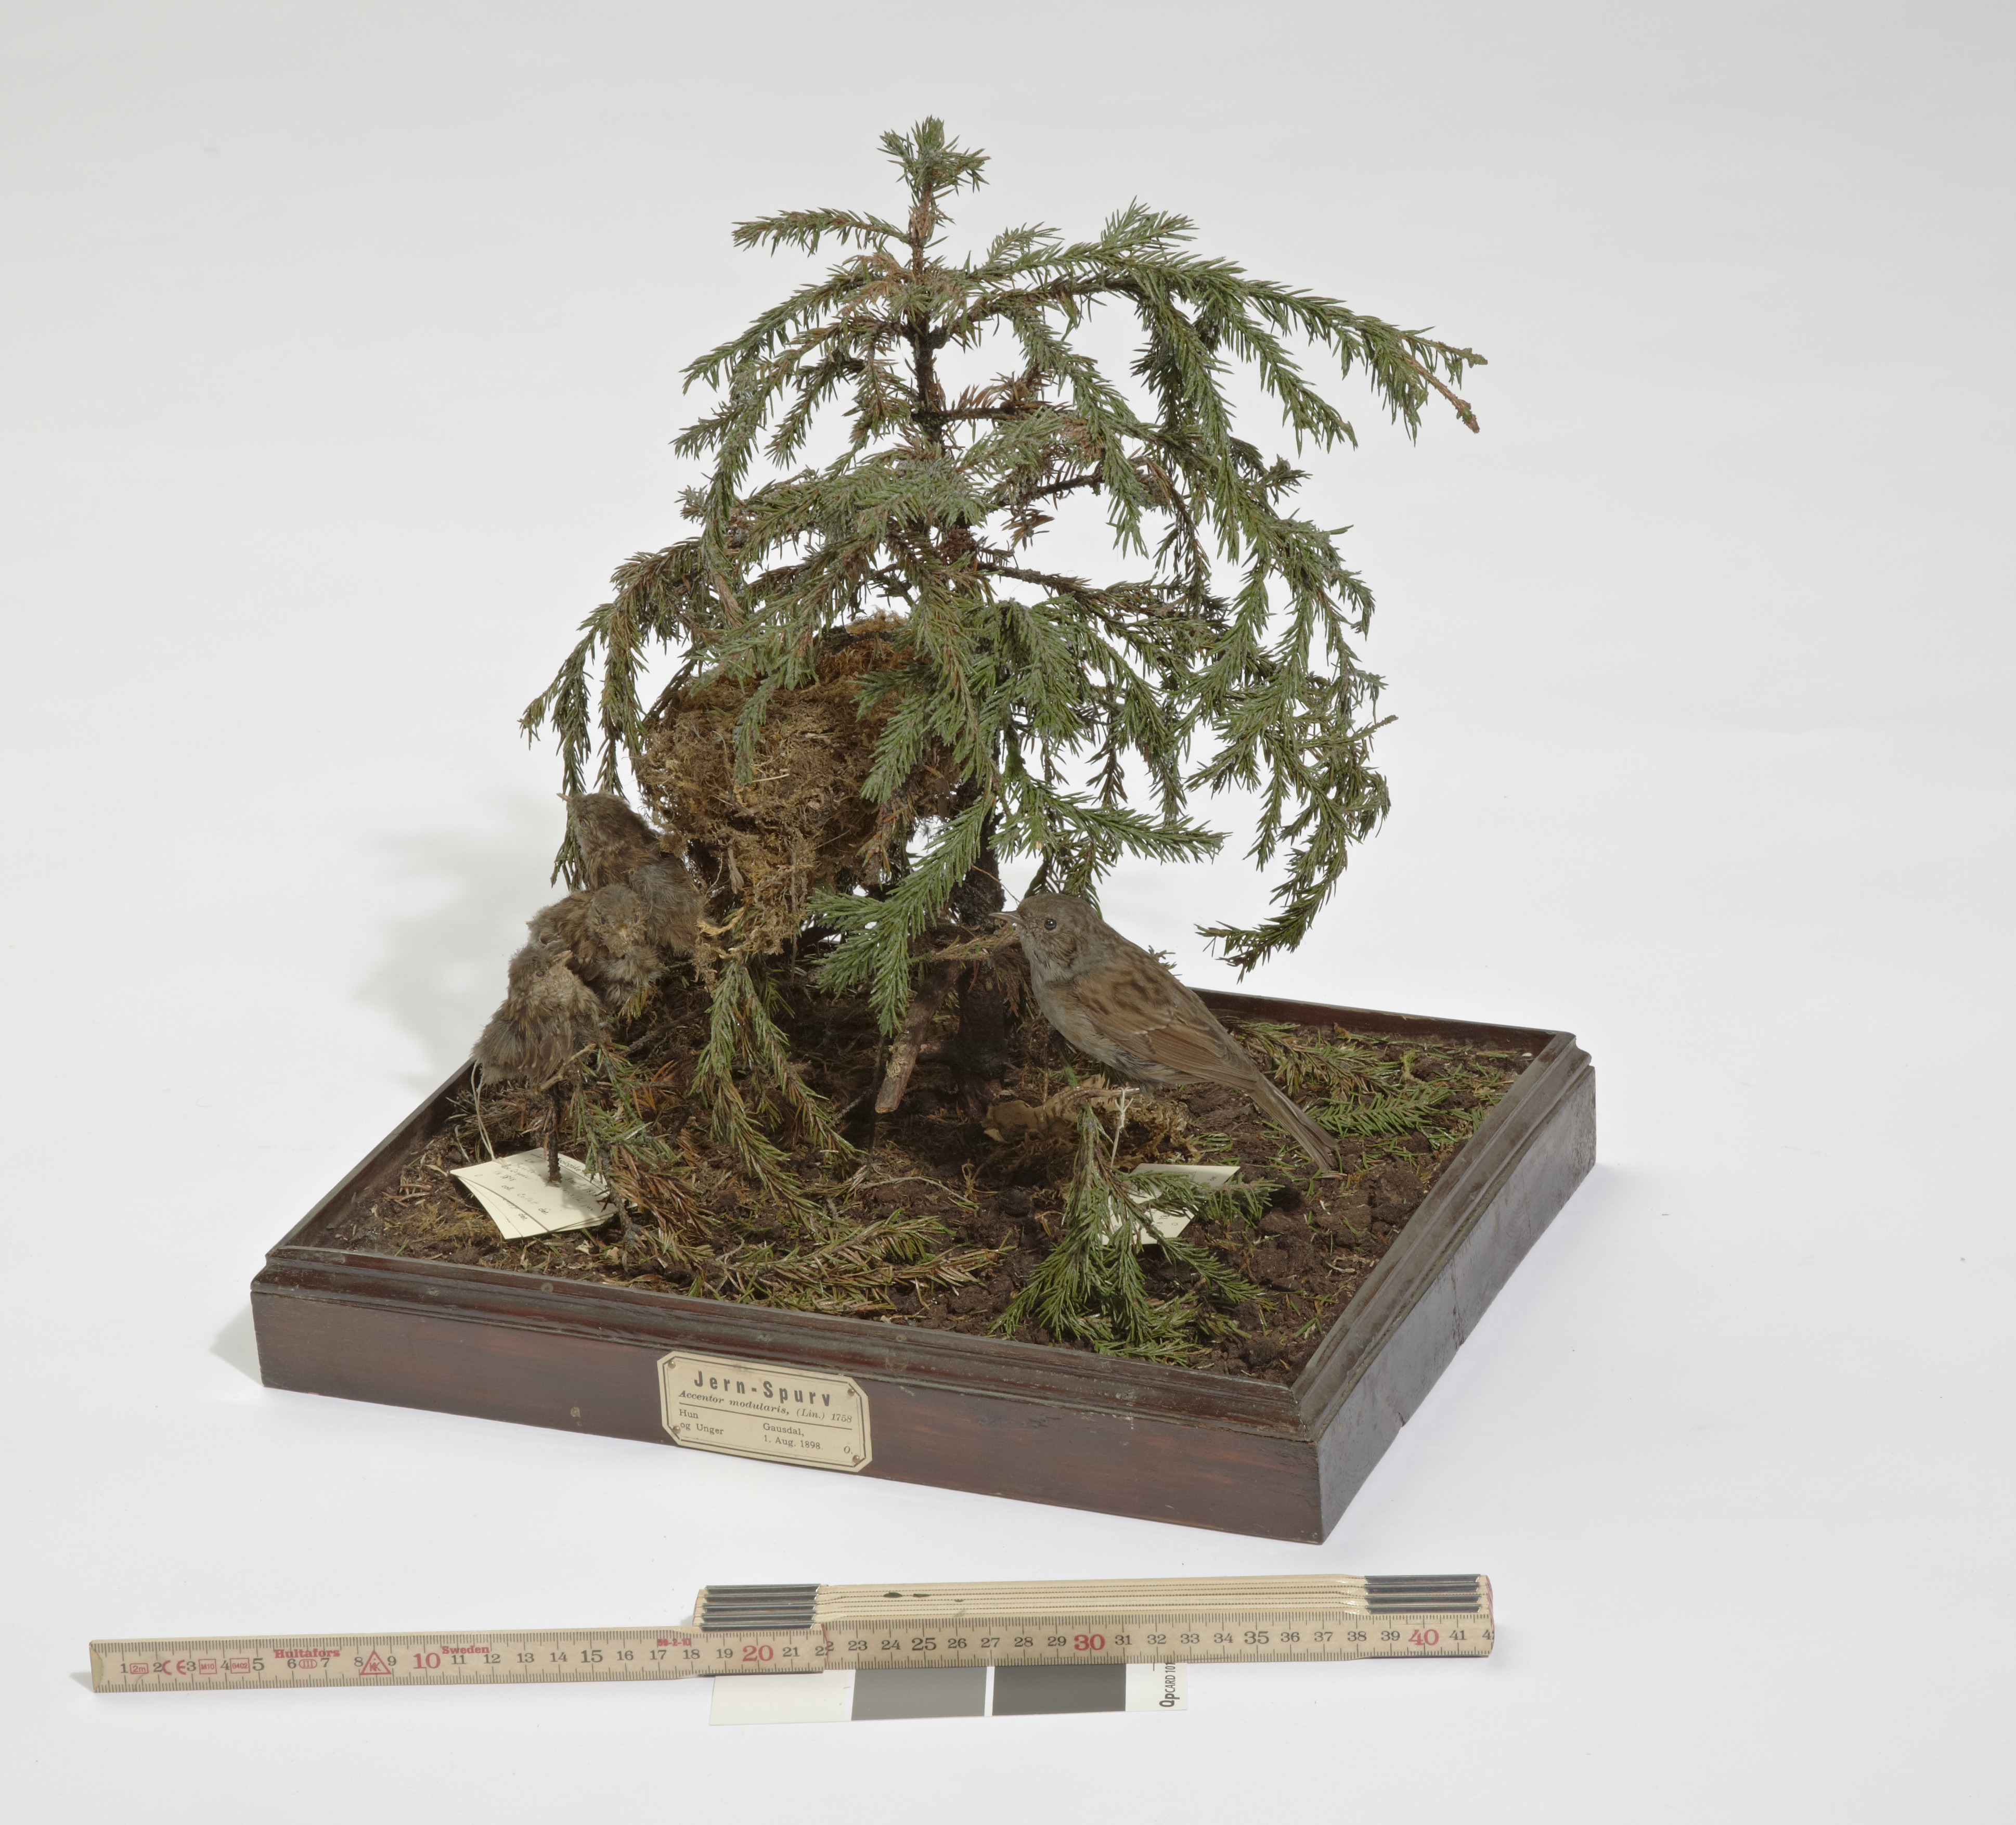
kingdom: Animalia
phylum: Chordata
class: Aves
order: Passeriformes
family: Prunellidae
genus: Prunella
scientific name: Prunella modularis
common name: Dunnock
